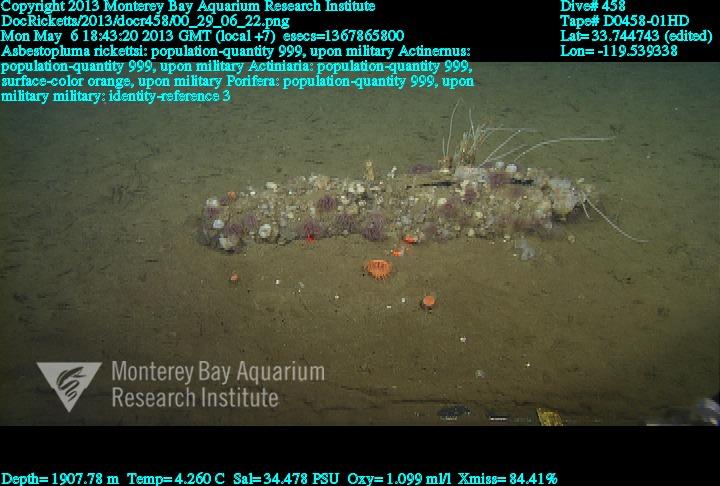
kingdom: Animalia
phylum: Porifera
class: Demospongiae
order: Poecilosclerida
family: Cladorhizidae
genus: Asbestopluma
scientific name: Asbestopluma rickettsi
